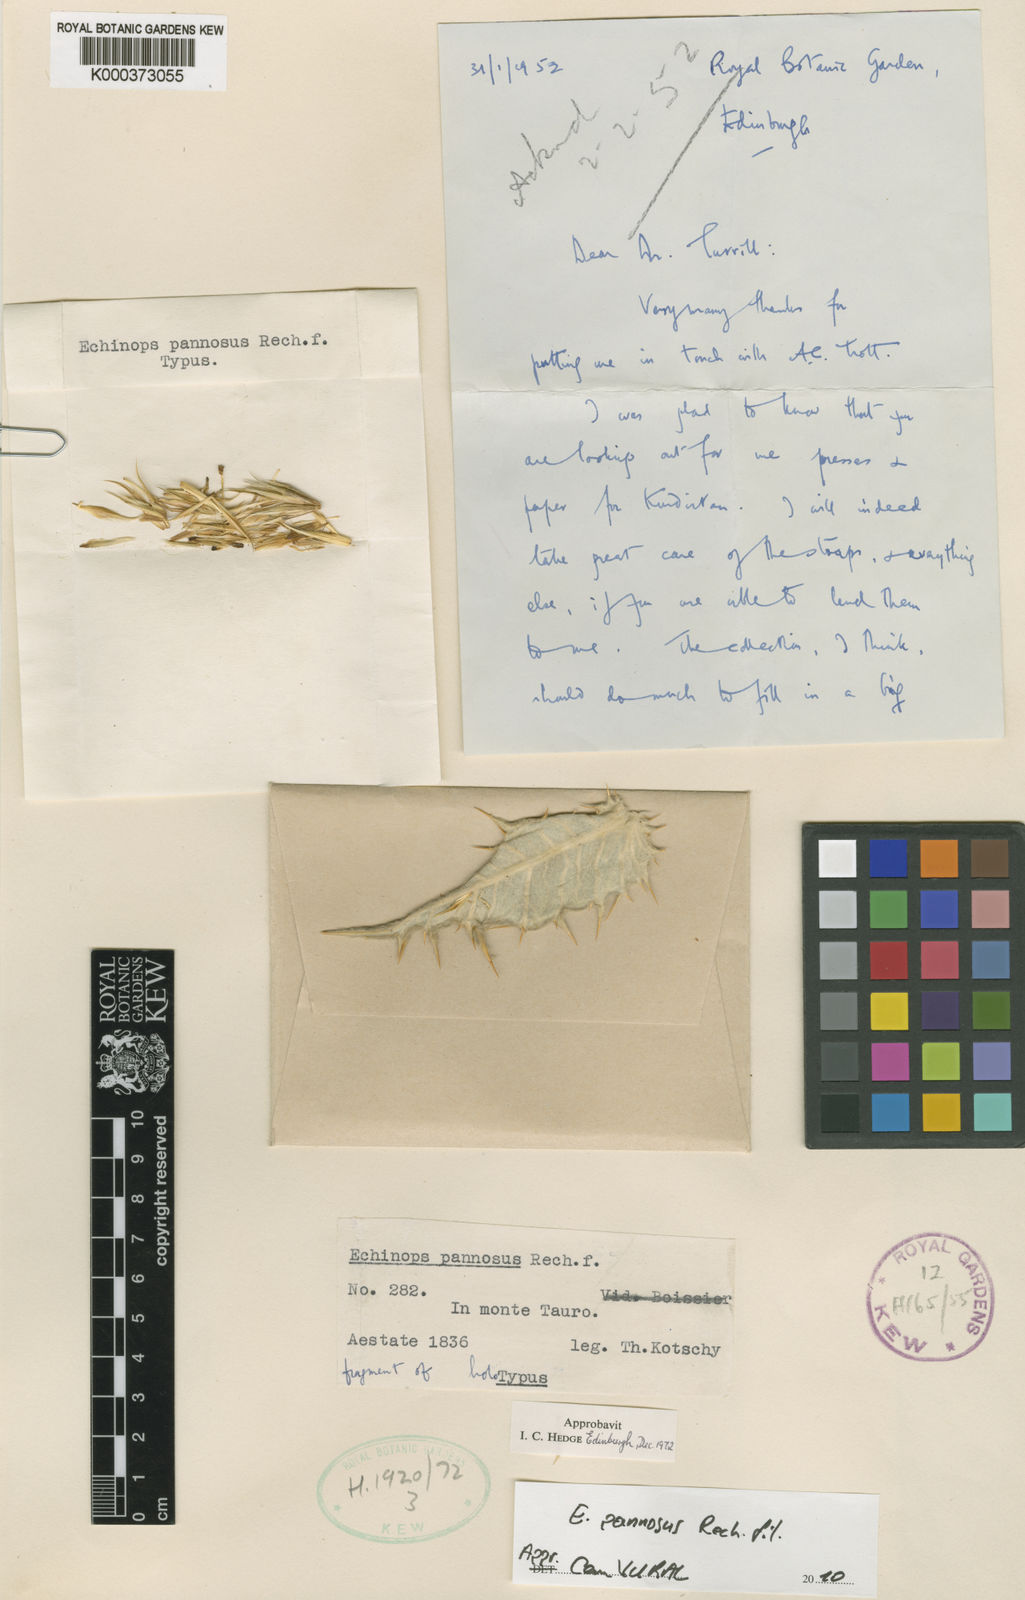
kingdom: Plantae
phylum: Tracheophyta
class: Magnoliopsida
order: Asterales
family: Asteraceae
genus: Echinops
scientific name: Echinops pannosus
